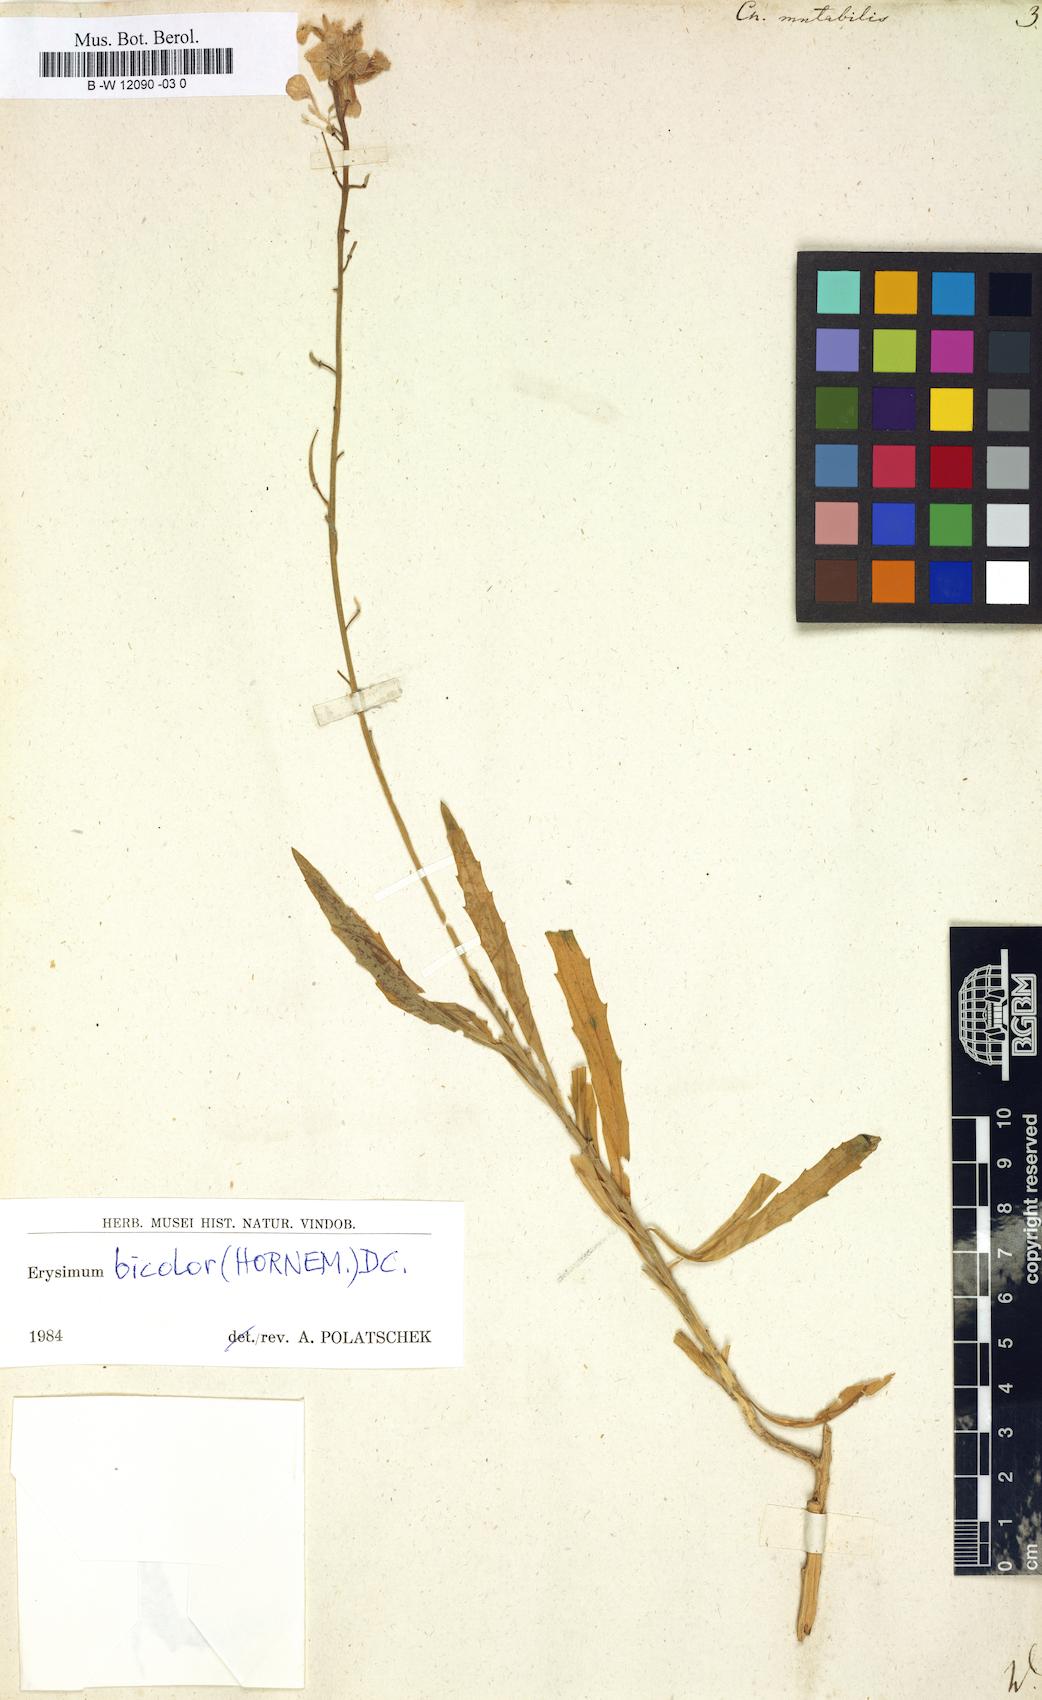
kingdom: Plantae
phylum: Tracheophyta
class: Magnoliopsida
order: Brassicales
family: Brassicaceae
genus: Erysimum
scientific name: Erysimum bicolor
